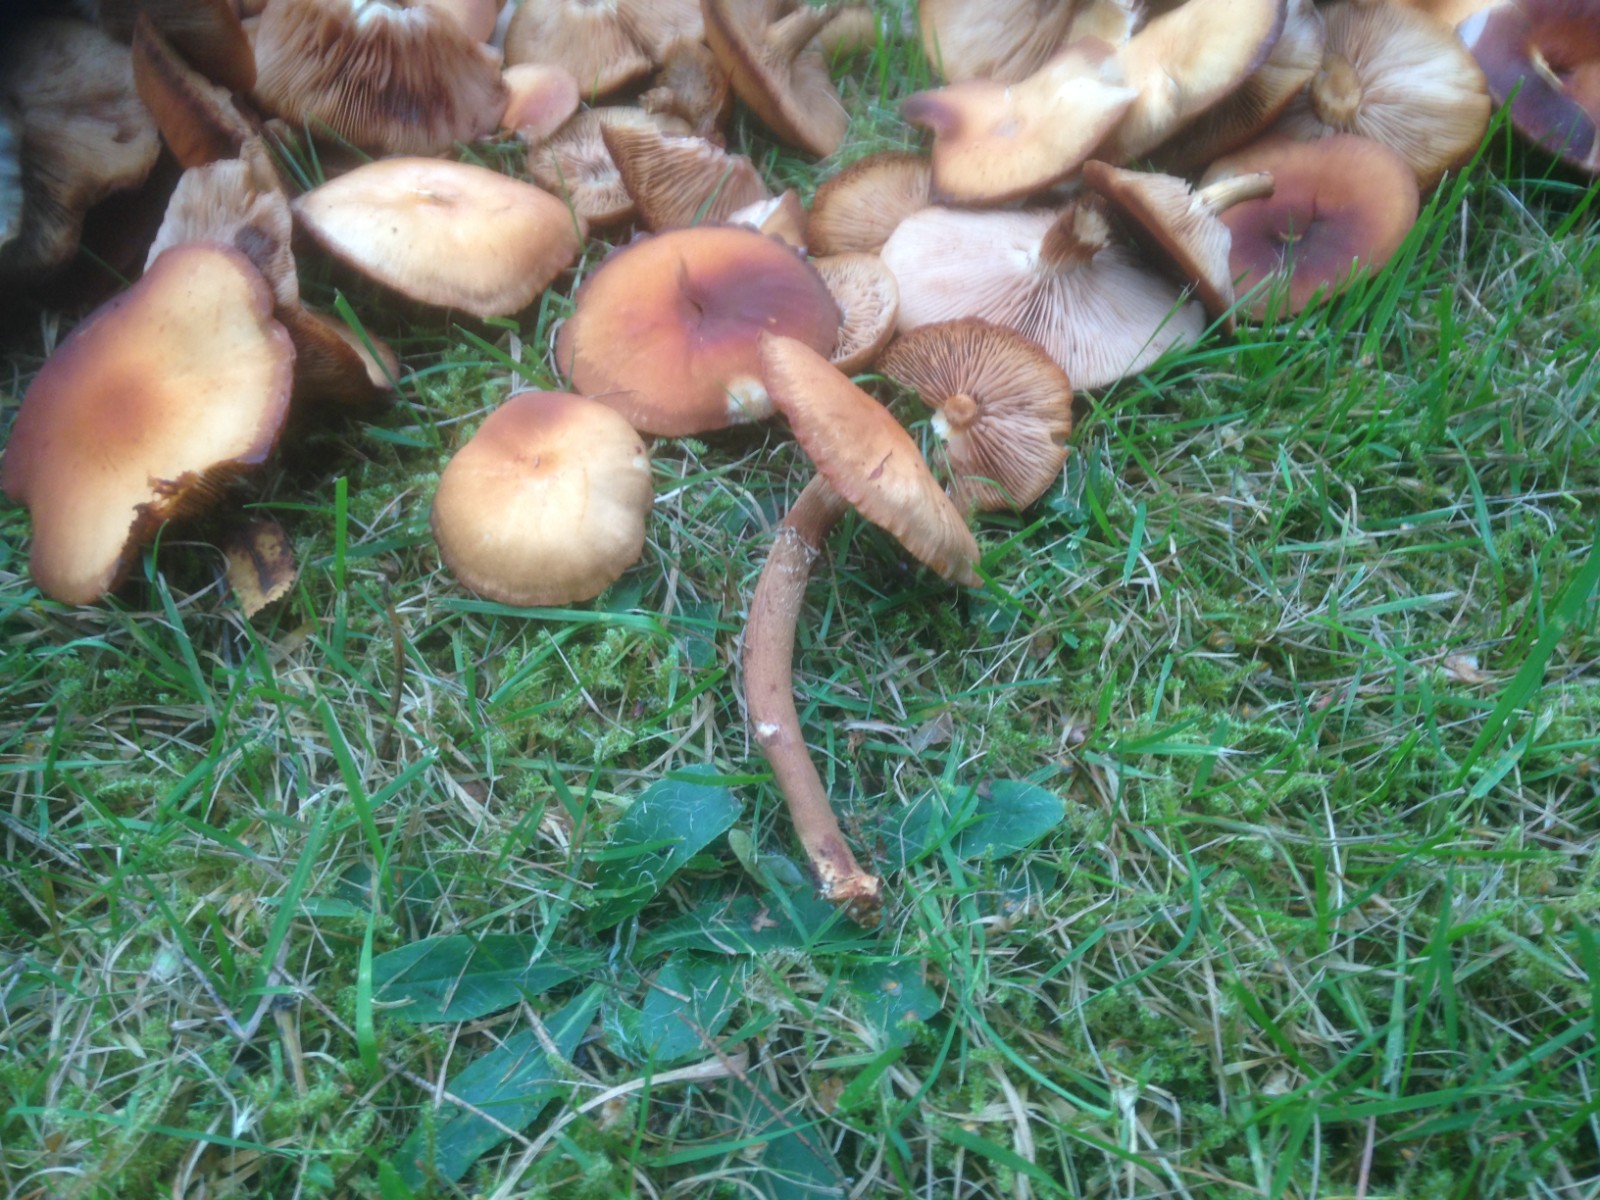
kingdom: Fungi
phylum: Basidiomycota
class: Agaricomycetes
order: Agaricales
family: Strophariaceae
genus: Kuehneromyces
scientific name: Kuehneromyces mutabilis
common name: foranderlig skælhat
